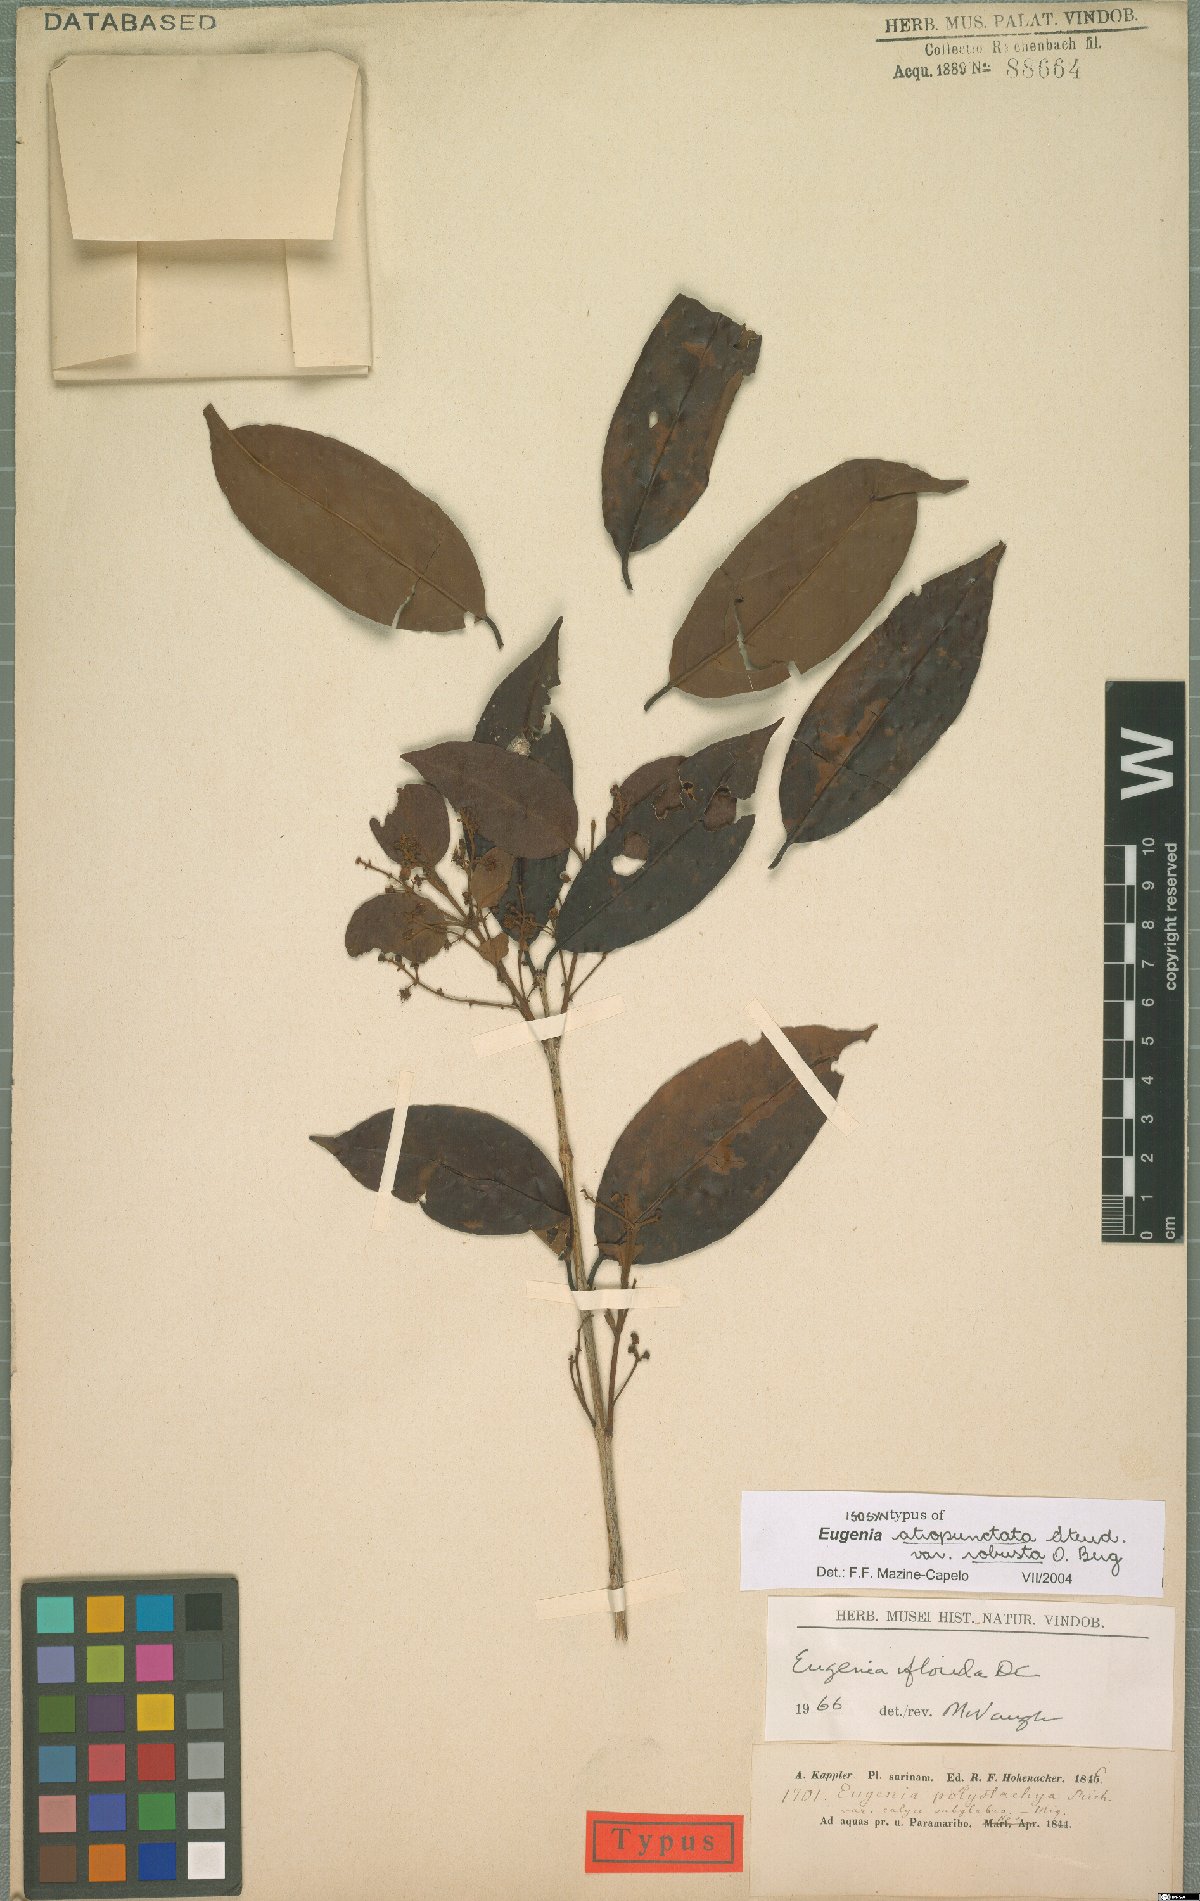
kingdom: Plantae
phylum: Tracheophyta
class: Magnoliopsida
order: Myrtales
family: Myrtaceae
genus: Eugenia
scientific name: Eugenia florida
